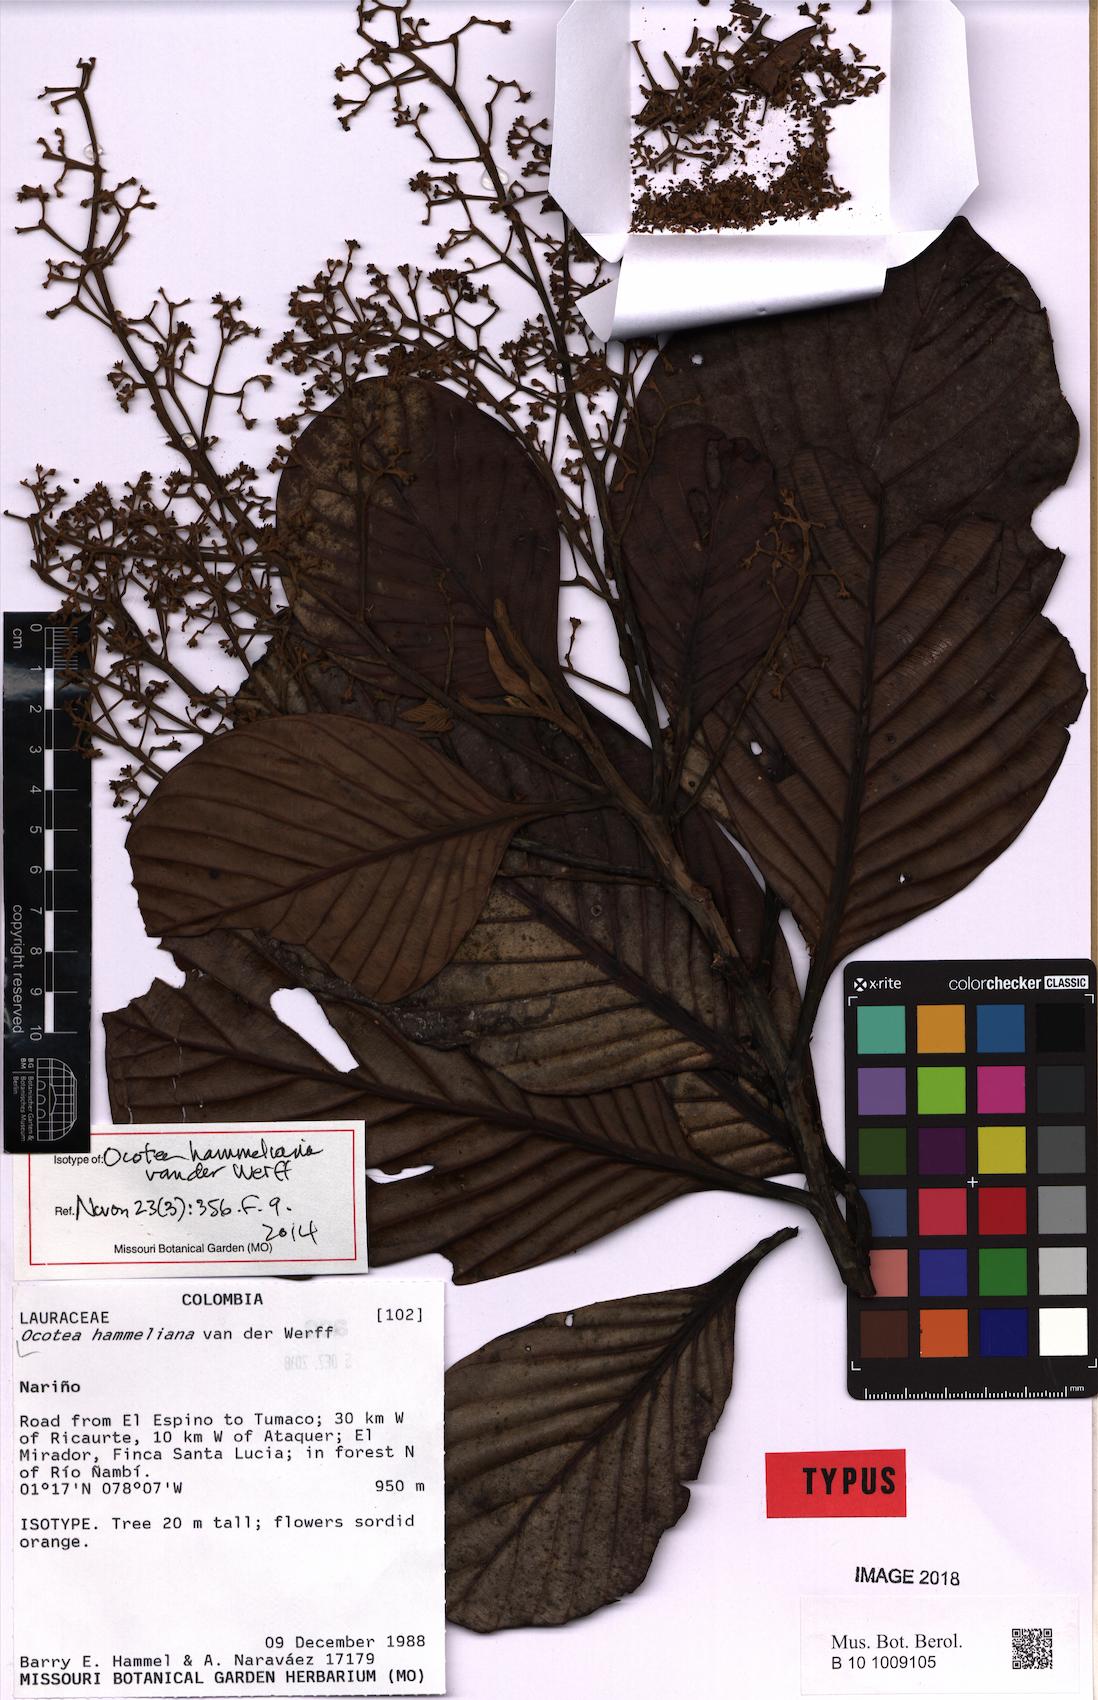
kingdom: Plantae
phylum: Tracheophyta
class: Magnoliopsida
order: Laurales
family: Lauraceae
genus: Ocotea
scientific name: Ocotea hammeliana
